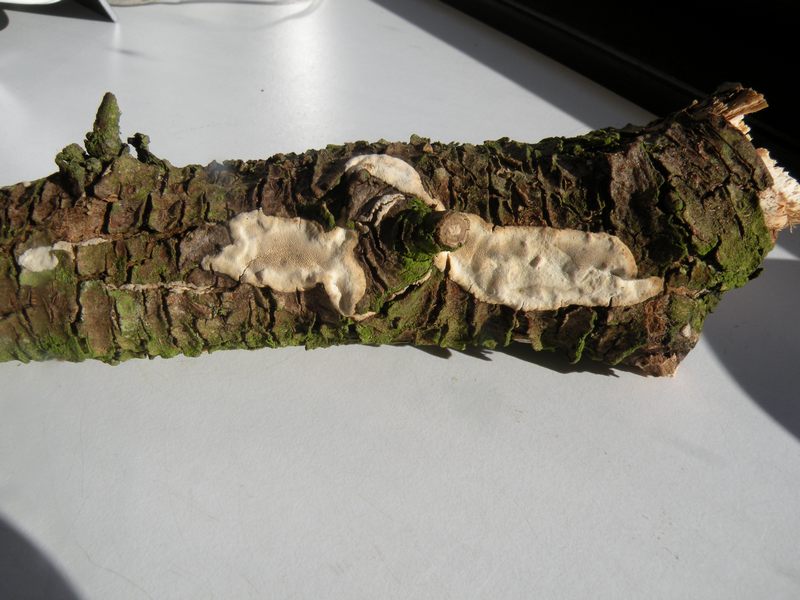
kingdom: Fungi
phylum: Basidiomycota
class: Agaricomycetes
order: Polyporales
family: Incrustoporiaceae
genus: Skeletocutis
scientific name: Skeletocutis nemoralis
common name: stor krystalporesvamp
